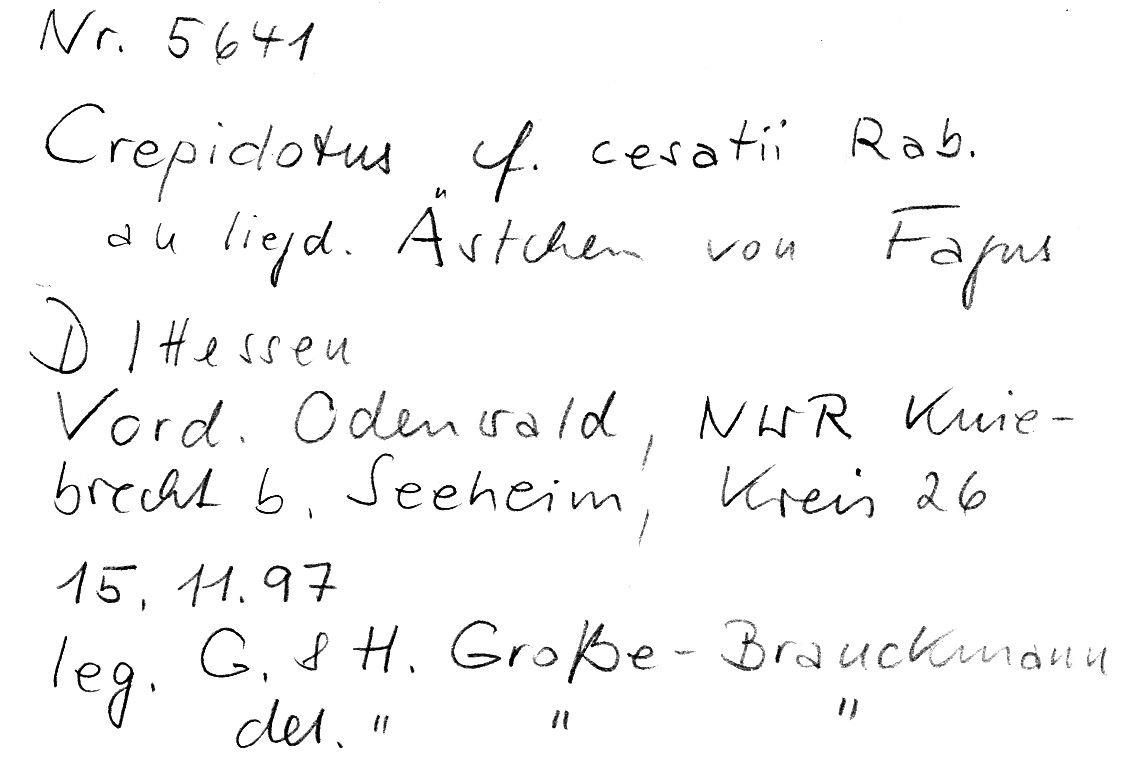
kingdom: Fungi
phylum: Basidiomycota
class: Agaricomycetes
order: Agaricales
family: Crepidotaceae
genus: Crepidotus
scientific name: Crepidotus cesatii
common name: Roundspored oysterling
